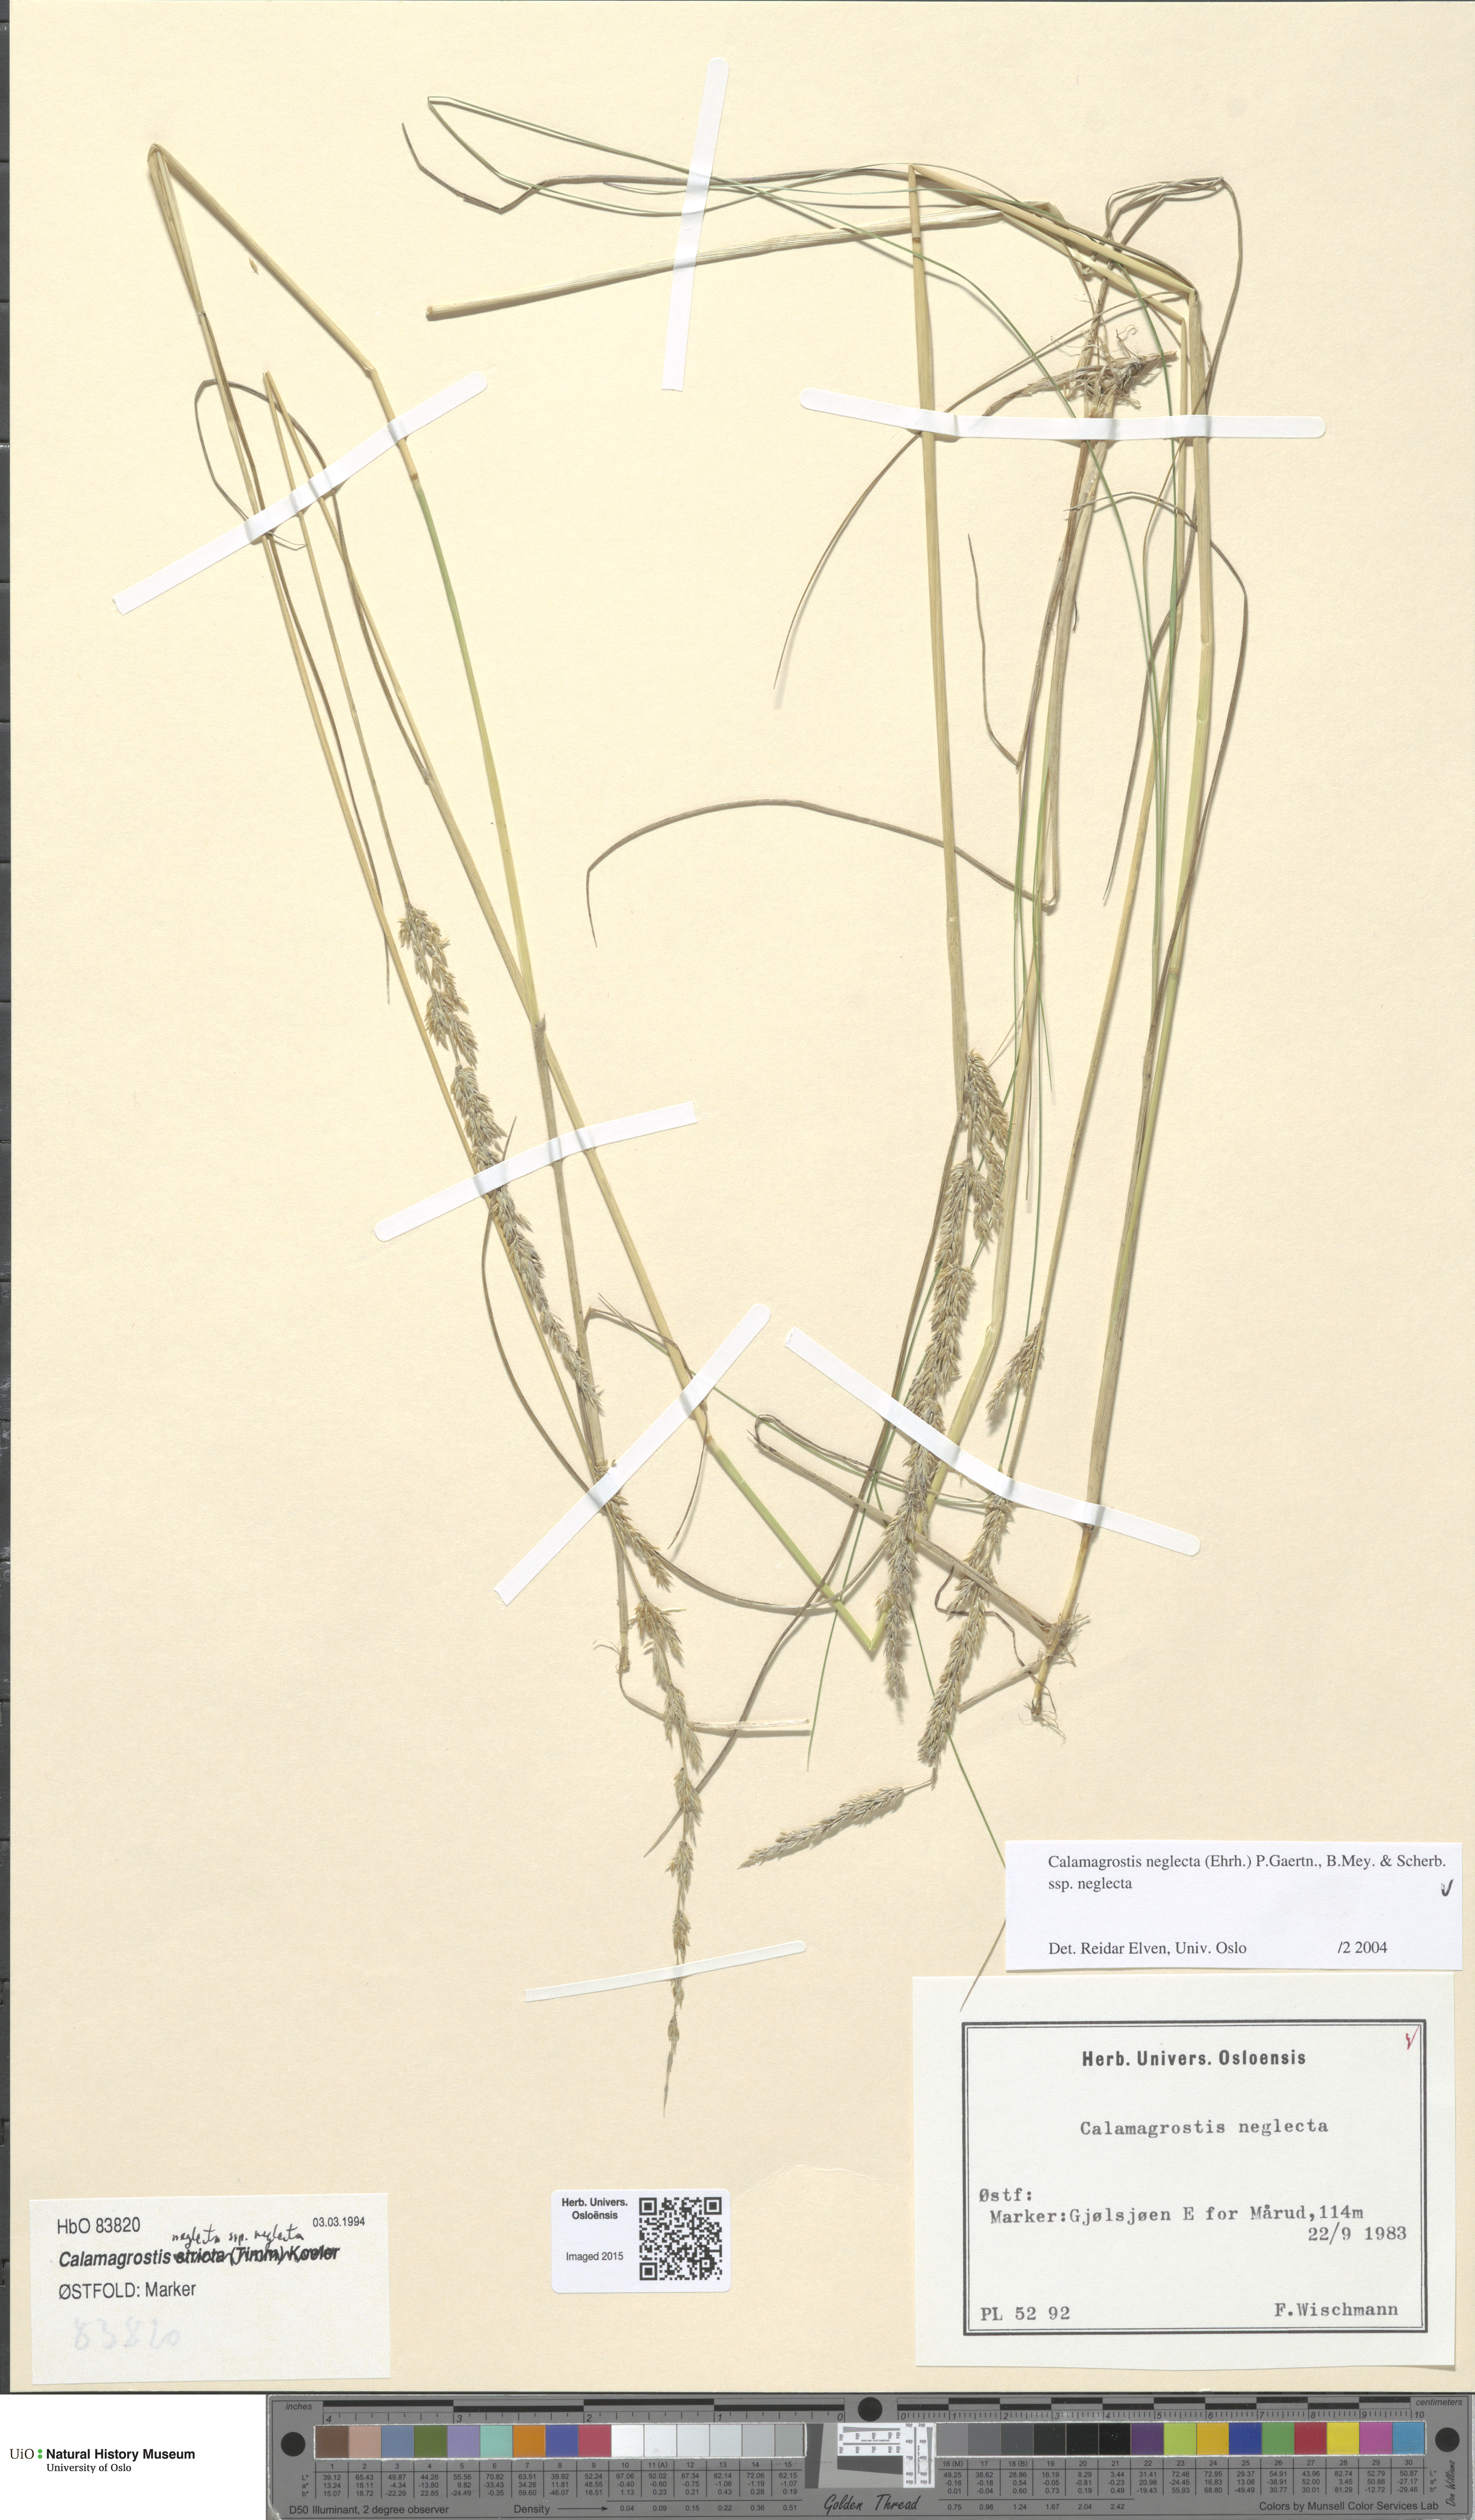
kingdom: Plantae
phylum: Tracheophyta
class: Liliopsida
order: Poales
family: Poaceae
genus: Achnatherum
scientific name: Achnatherum calamagrostis
